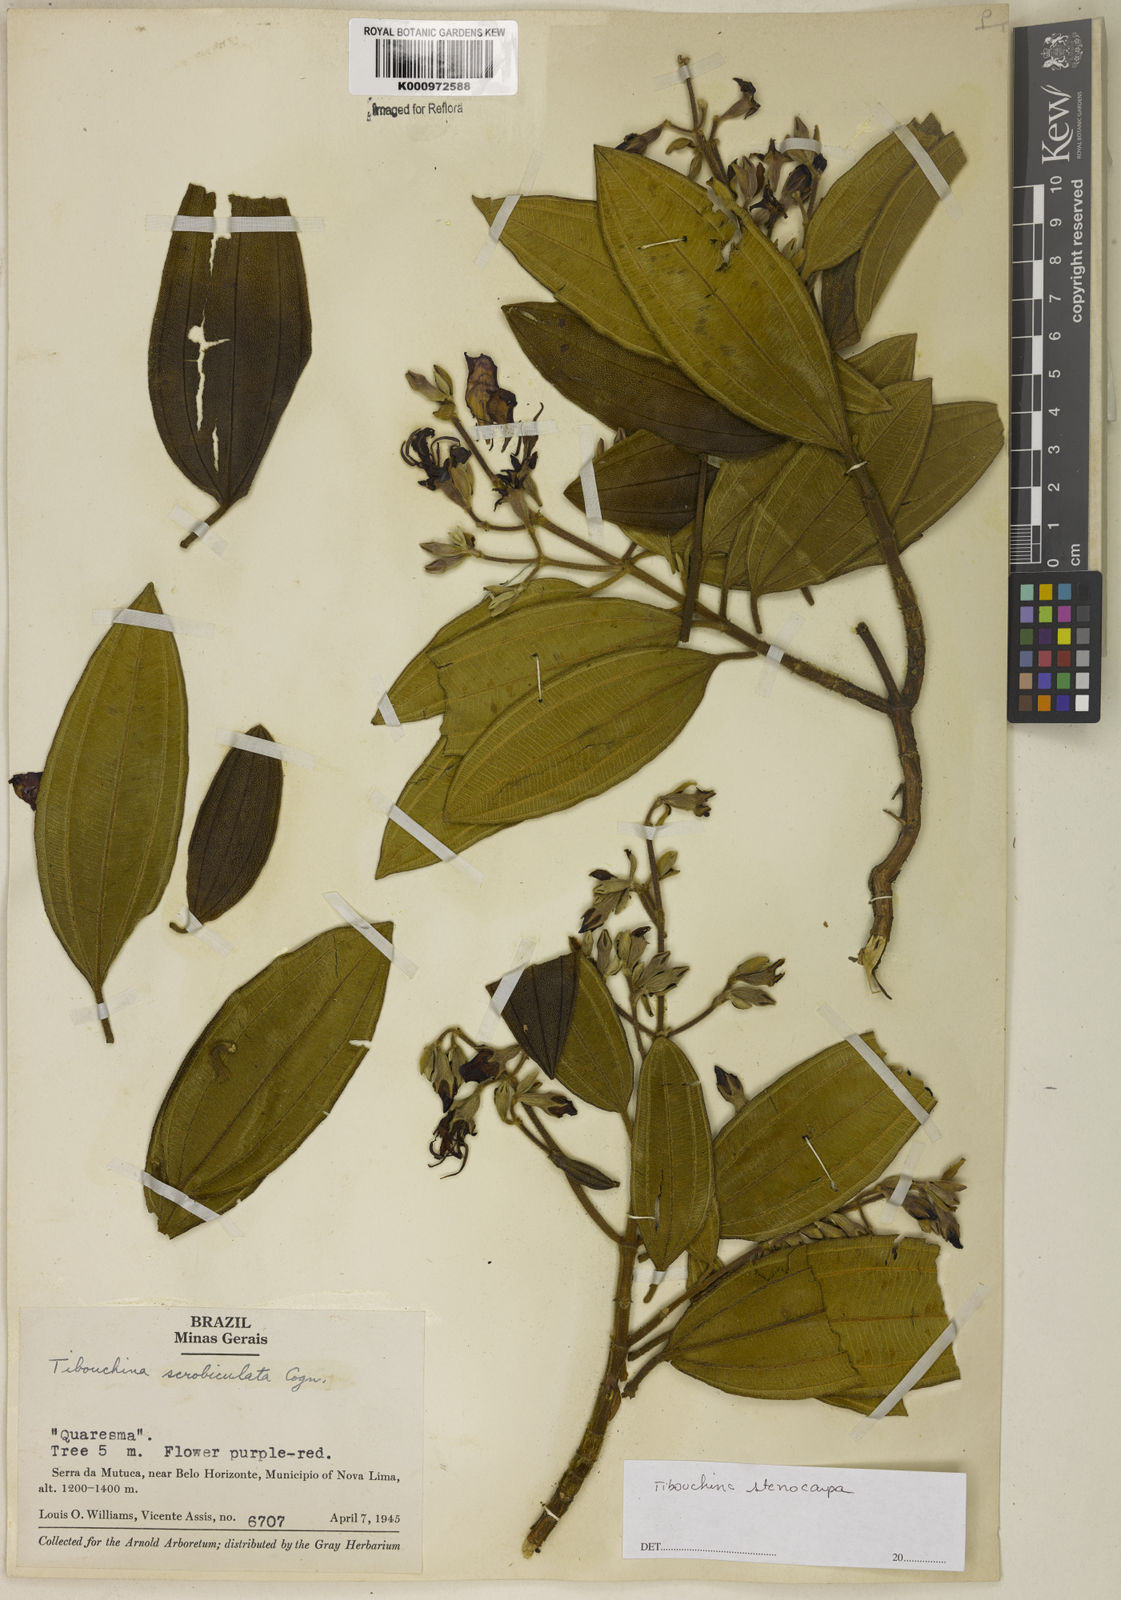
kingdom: Plantae
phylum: Tracheophyta
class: Magnoliopsida
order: Myrtales
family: Melastomataceae
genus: Pleroma
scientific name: Pleroma estrellense
